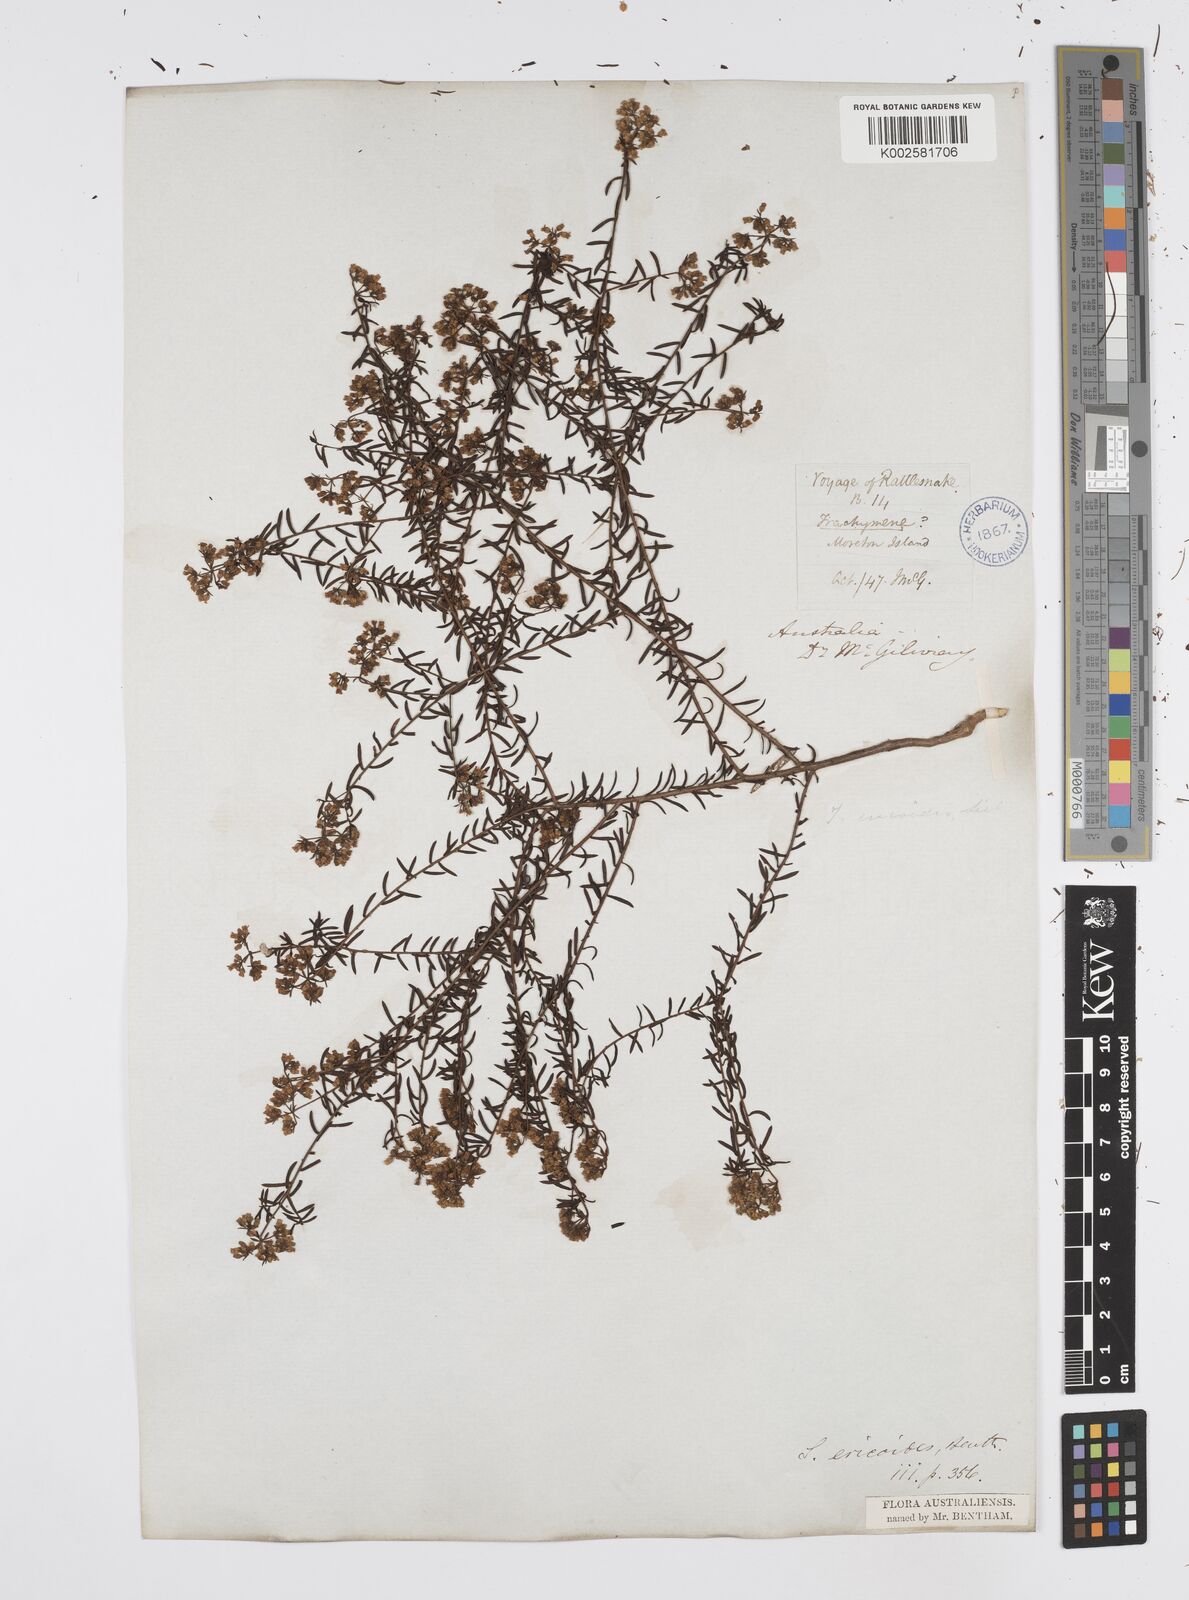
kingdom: Plantae
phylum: Tracheophyta
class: Magnoliopsida
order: Apiales
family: Apiaceae
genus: Platysace
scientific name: Platysace ericoides
